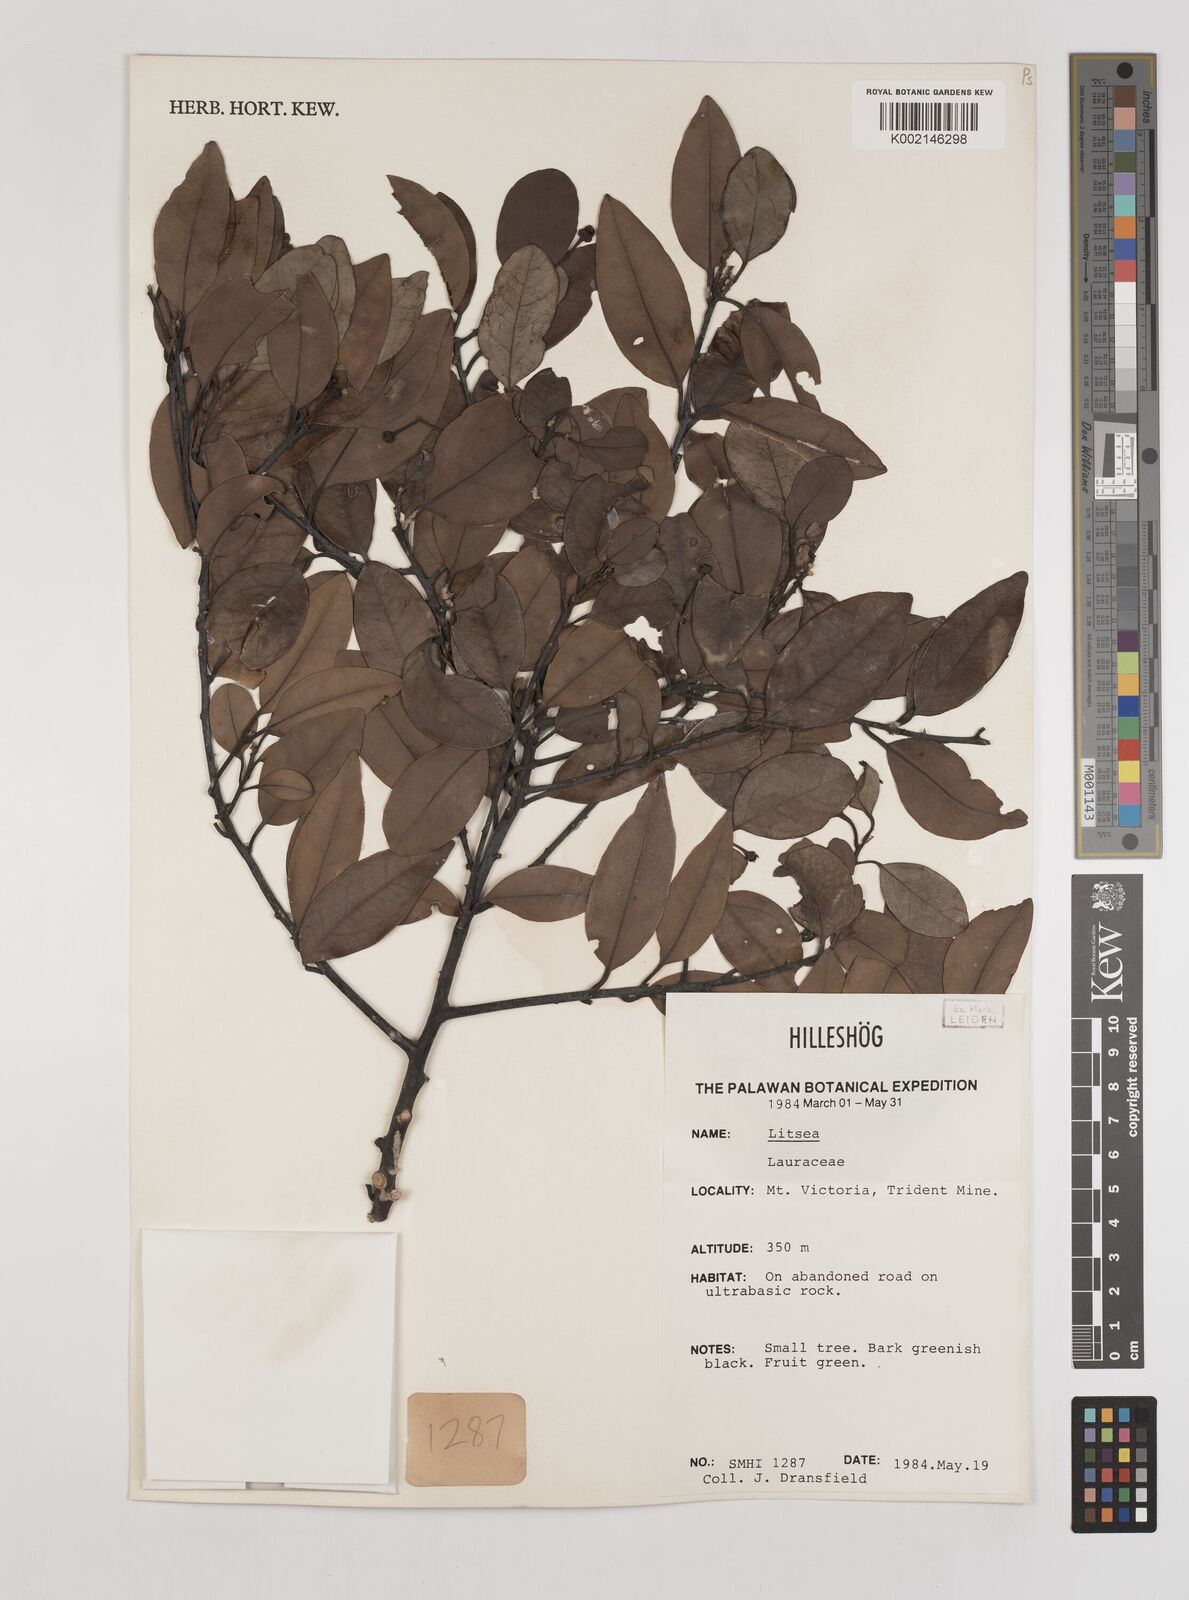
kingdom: Plantae
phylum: Tracheophyta
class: Magnoliopsida
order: Laurales
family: Lauraceae
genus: Litsea
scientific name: Litsea
